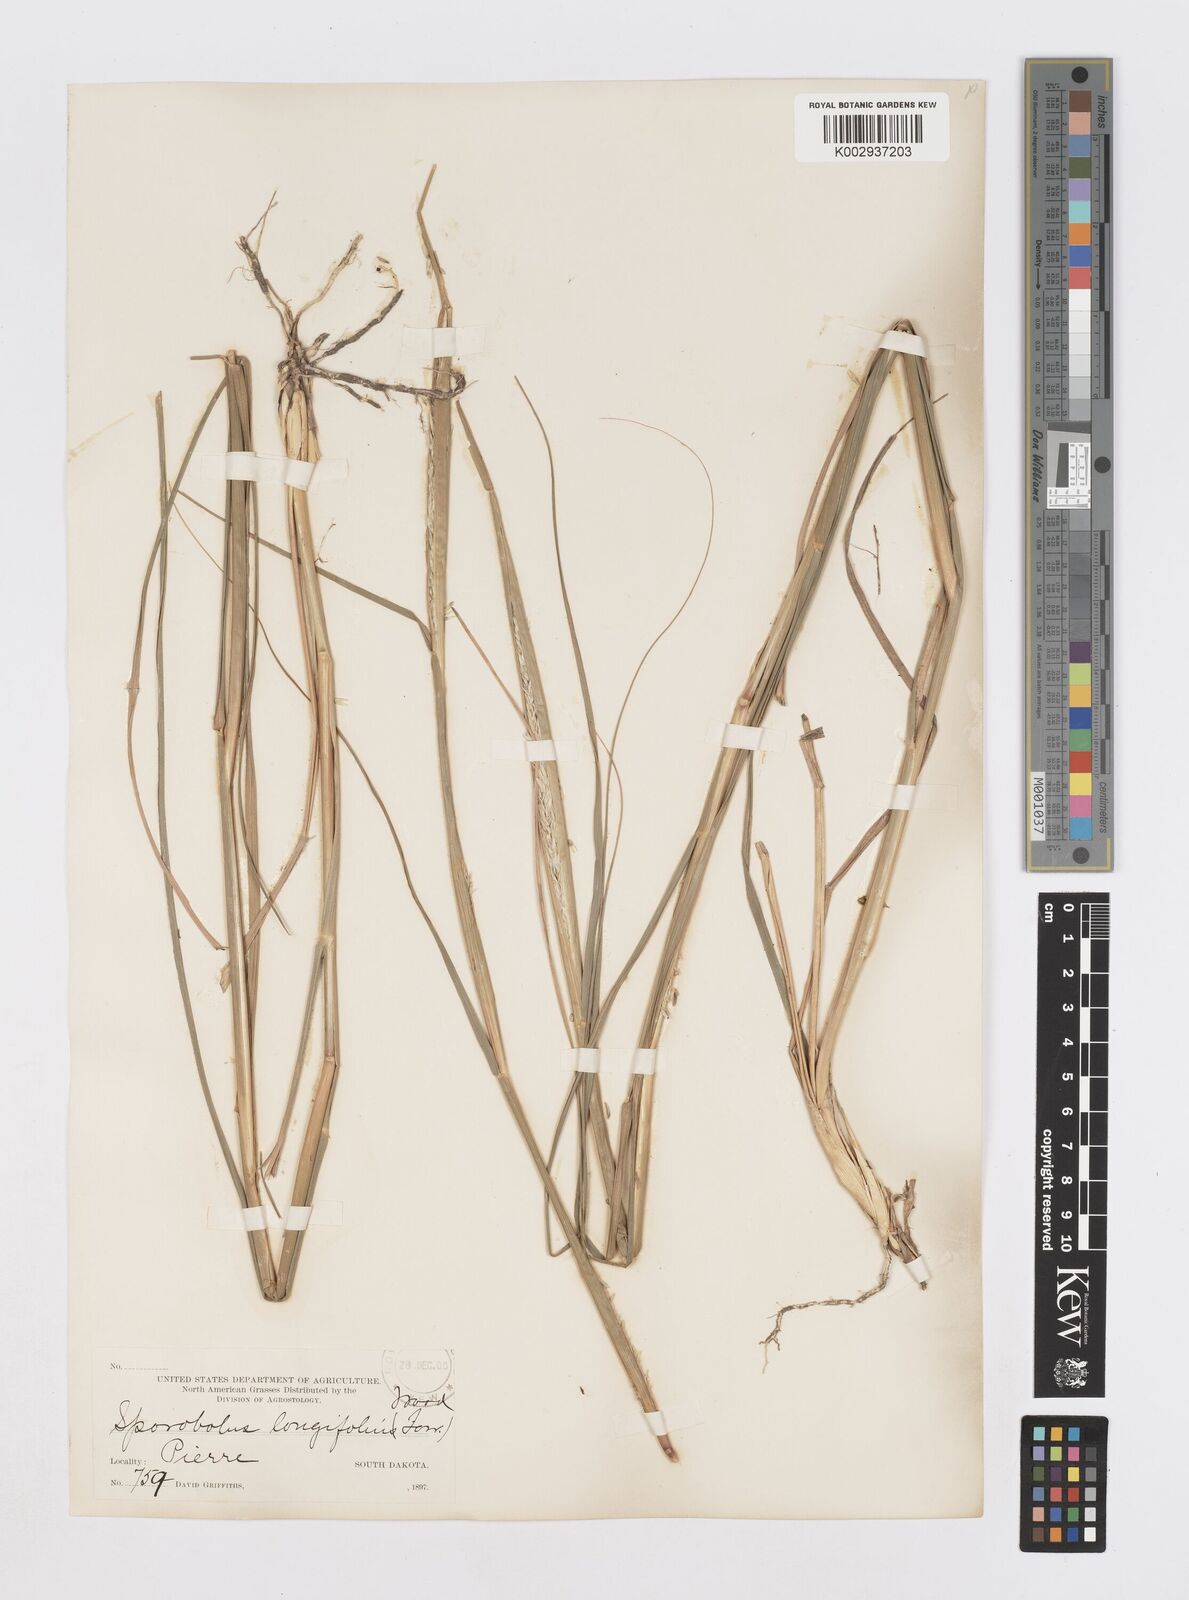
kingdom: Plantae
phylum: Tracheophyta
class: Liliopsida
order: Poales
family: Poaceae
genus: Sporobolus
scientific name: Sporobolus compositus
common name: Rough dropseed
